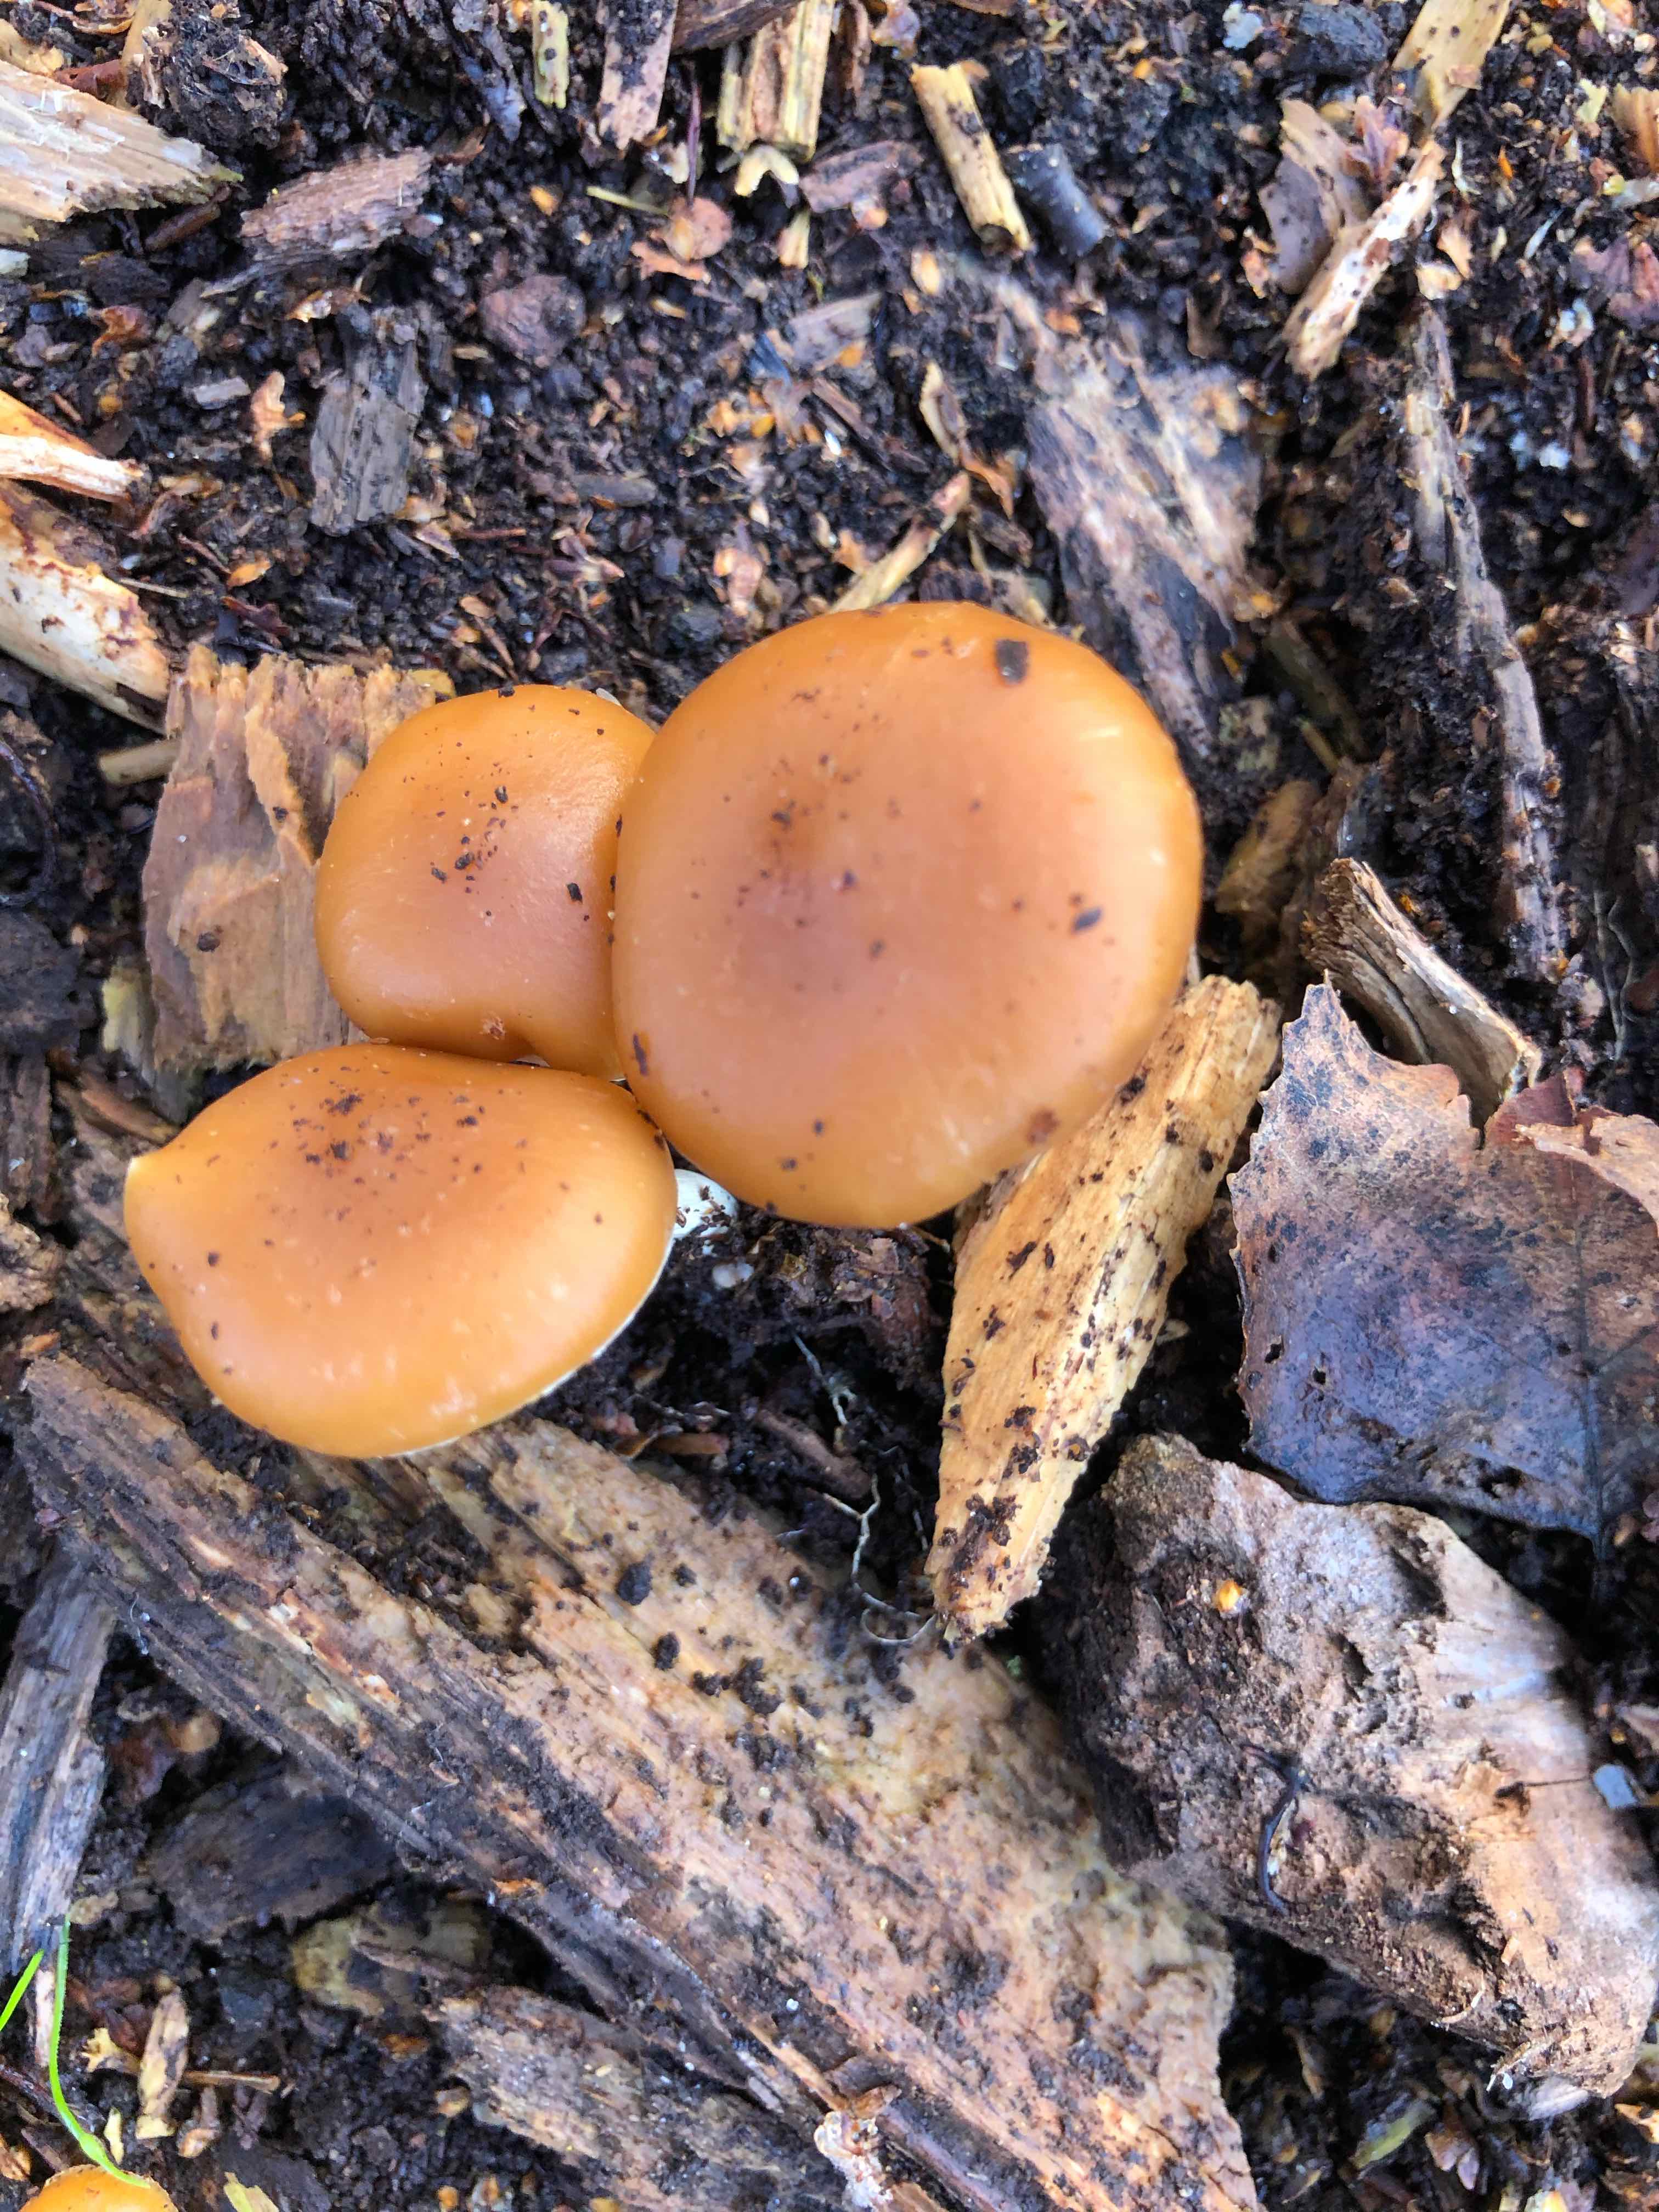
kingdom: Fungi
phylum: Basidiomycota
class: Agaricomycetes
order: Agaricales
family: Hymenogastraceae
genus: Galerina
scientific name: Galerina sideroides
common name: træflis-hjelmhat
